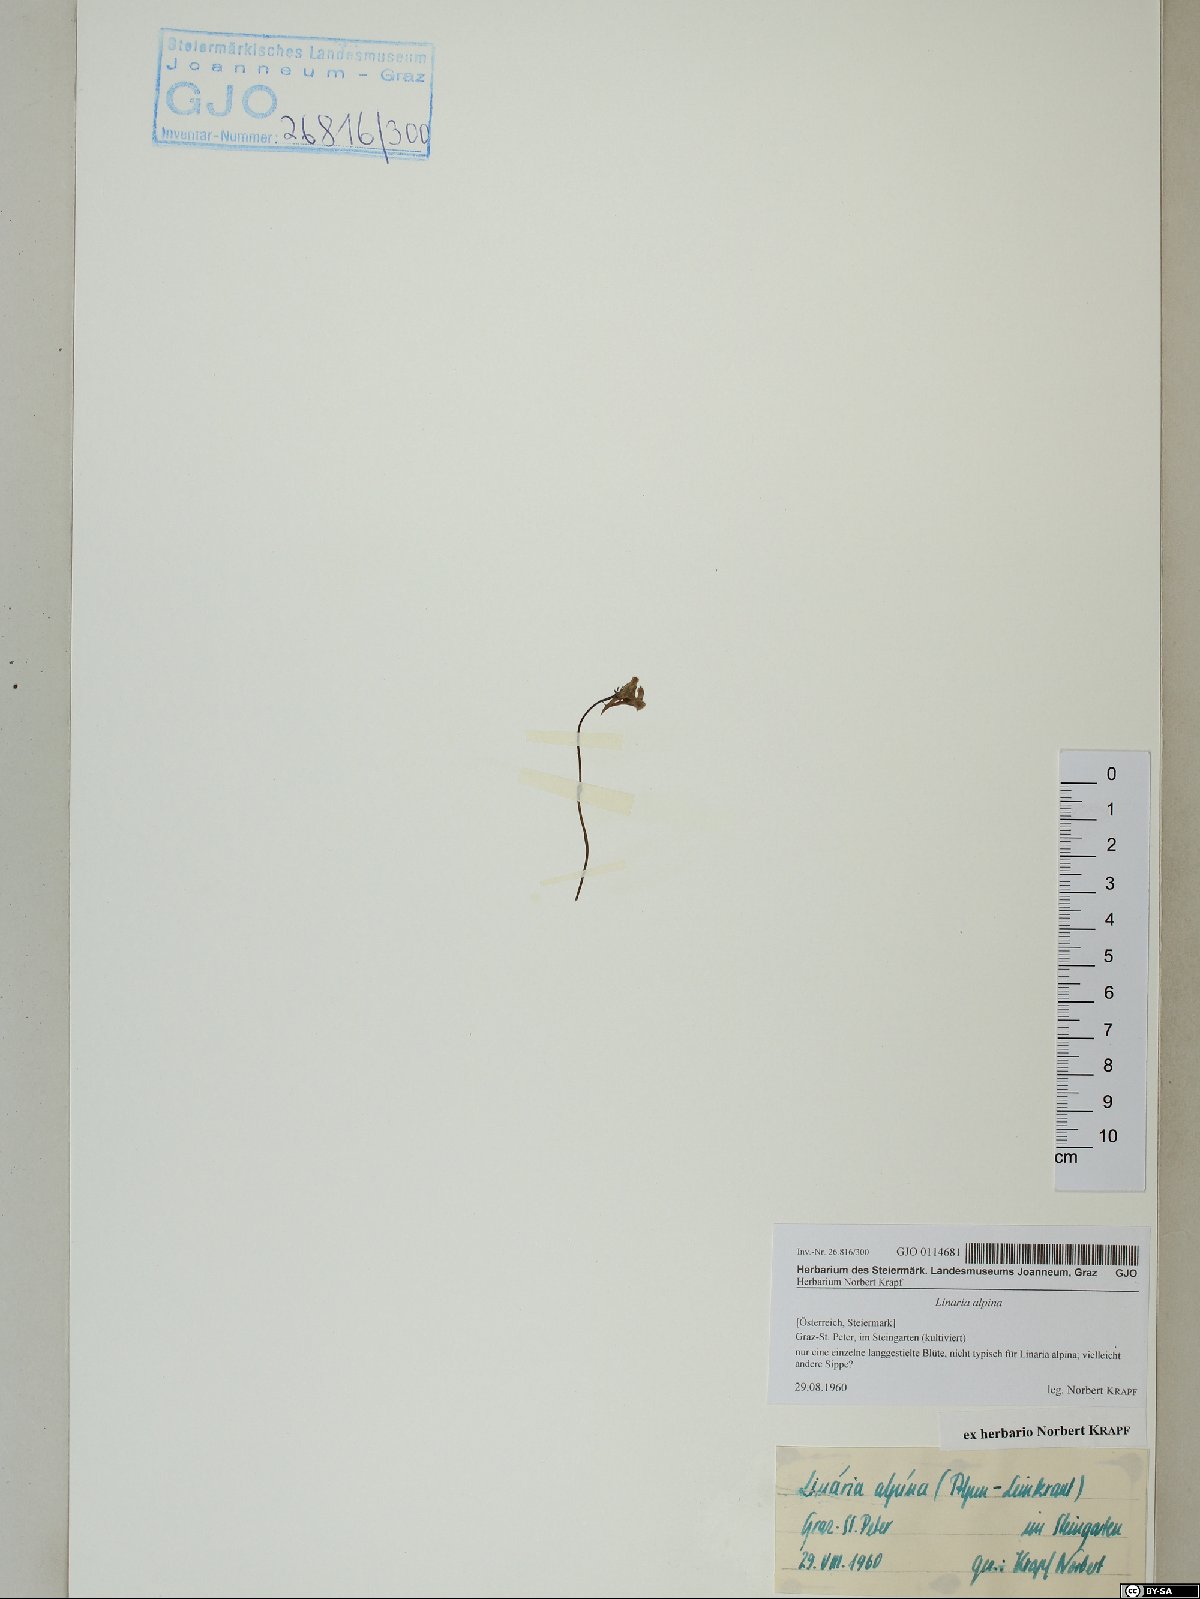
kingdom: Plantae
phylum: Tracheophyta
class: Magnoliopsida
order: Lamiales
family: Plantaginaceae
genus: Linaria
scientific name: Linaria alpina
